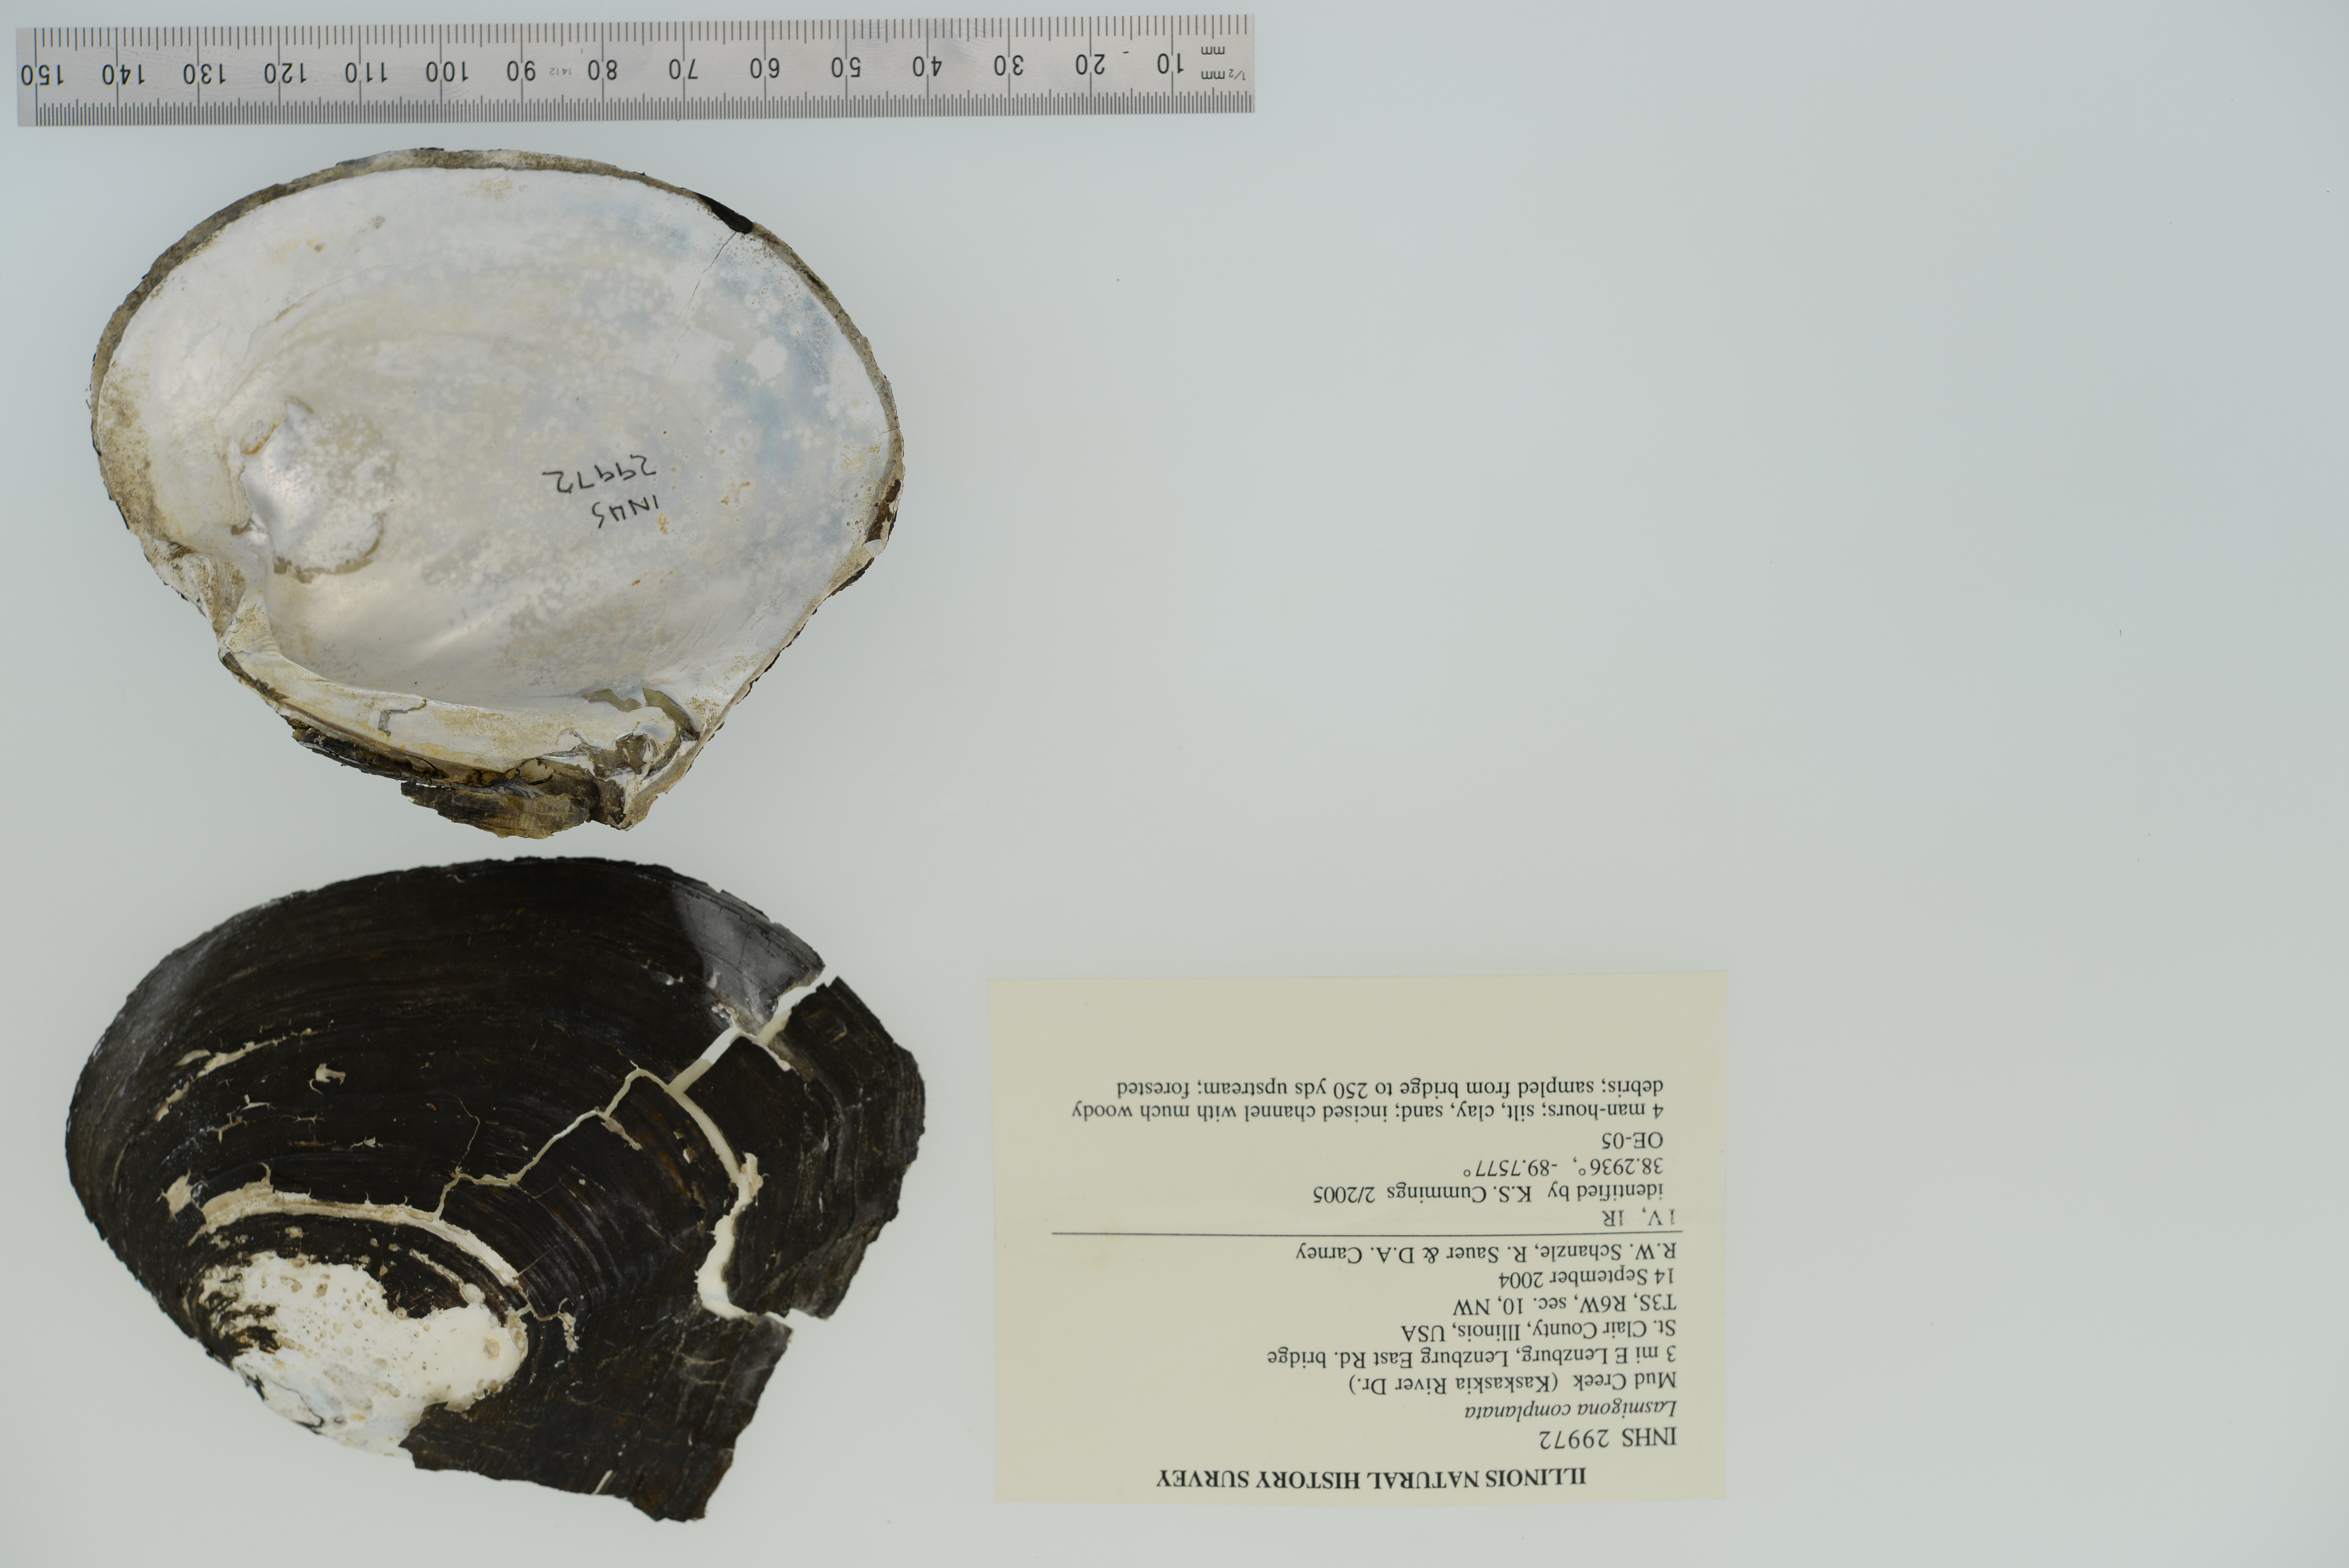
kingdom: Animalia
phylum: Mollusca
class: Bivalvia
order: Unionida
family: Unionidae
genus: Lasmigona
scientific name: Lasmigona complanata
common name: White heelsplitter
